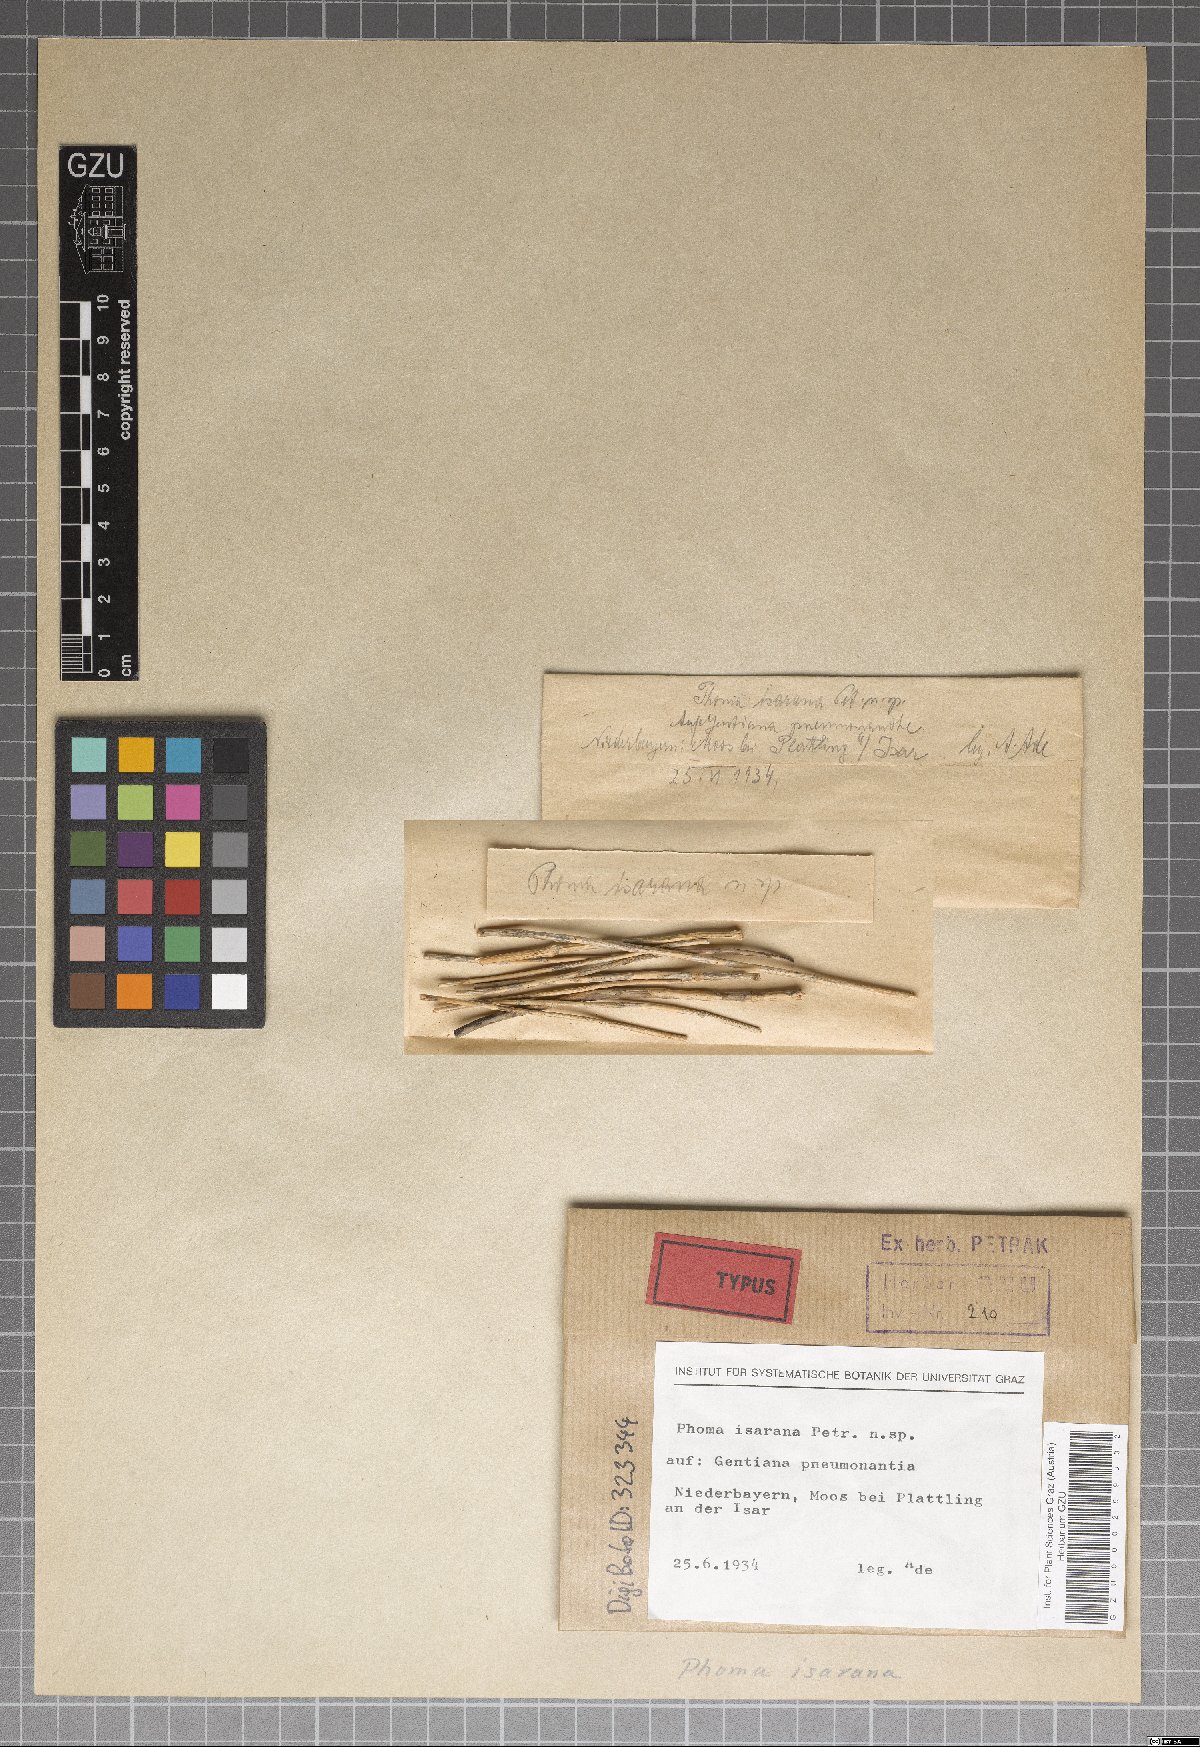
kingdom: Fungi
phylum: Ascomycota
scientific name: Ascomycota
